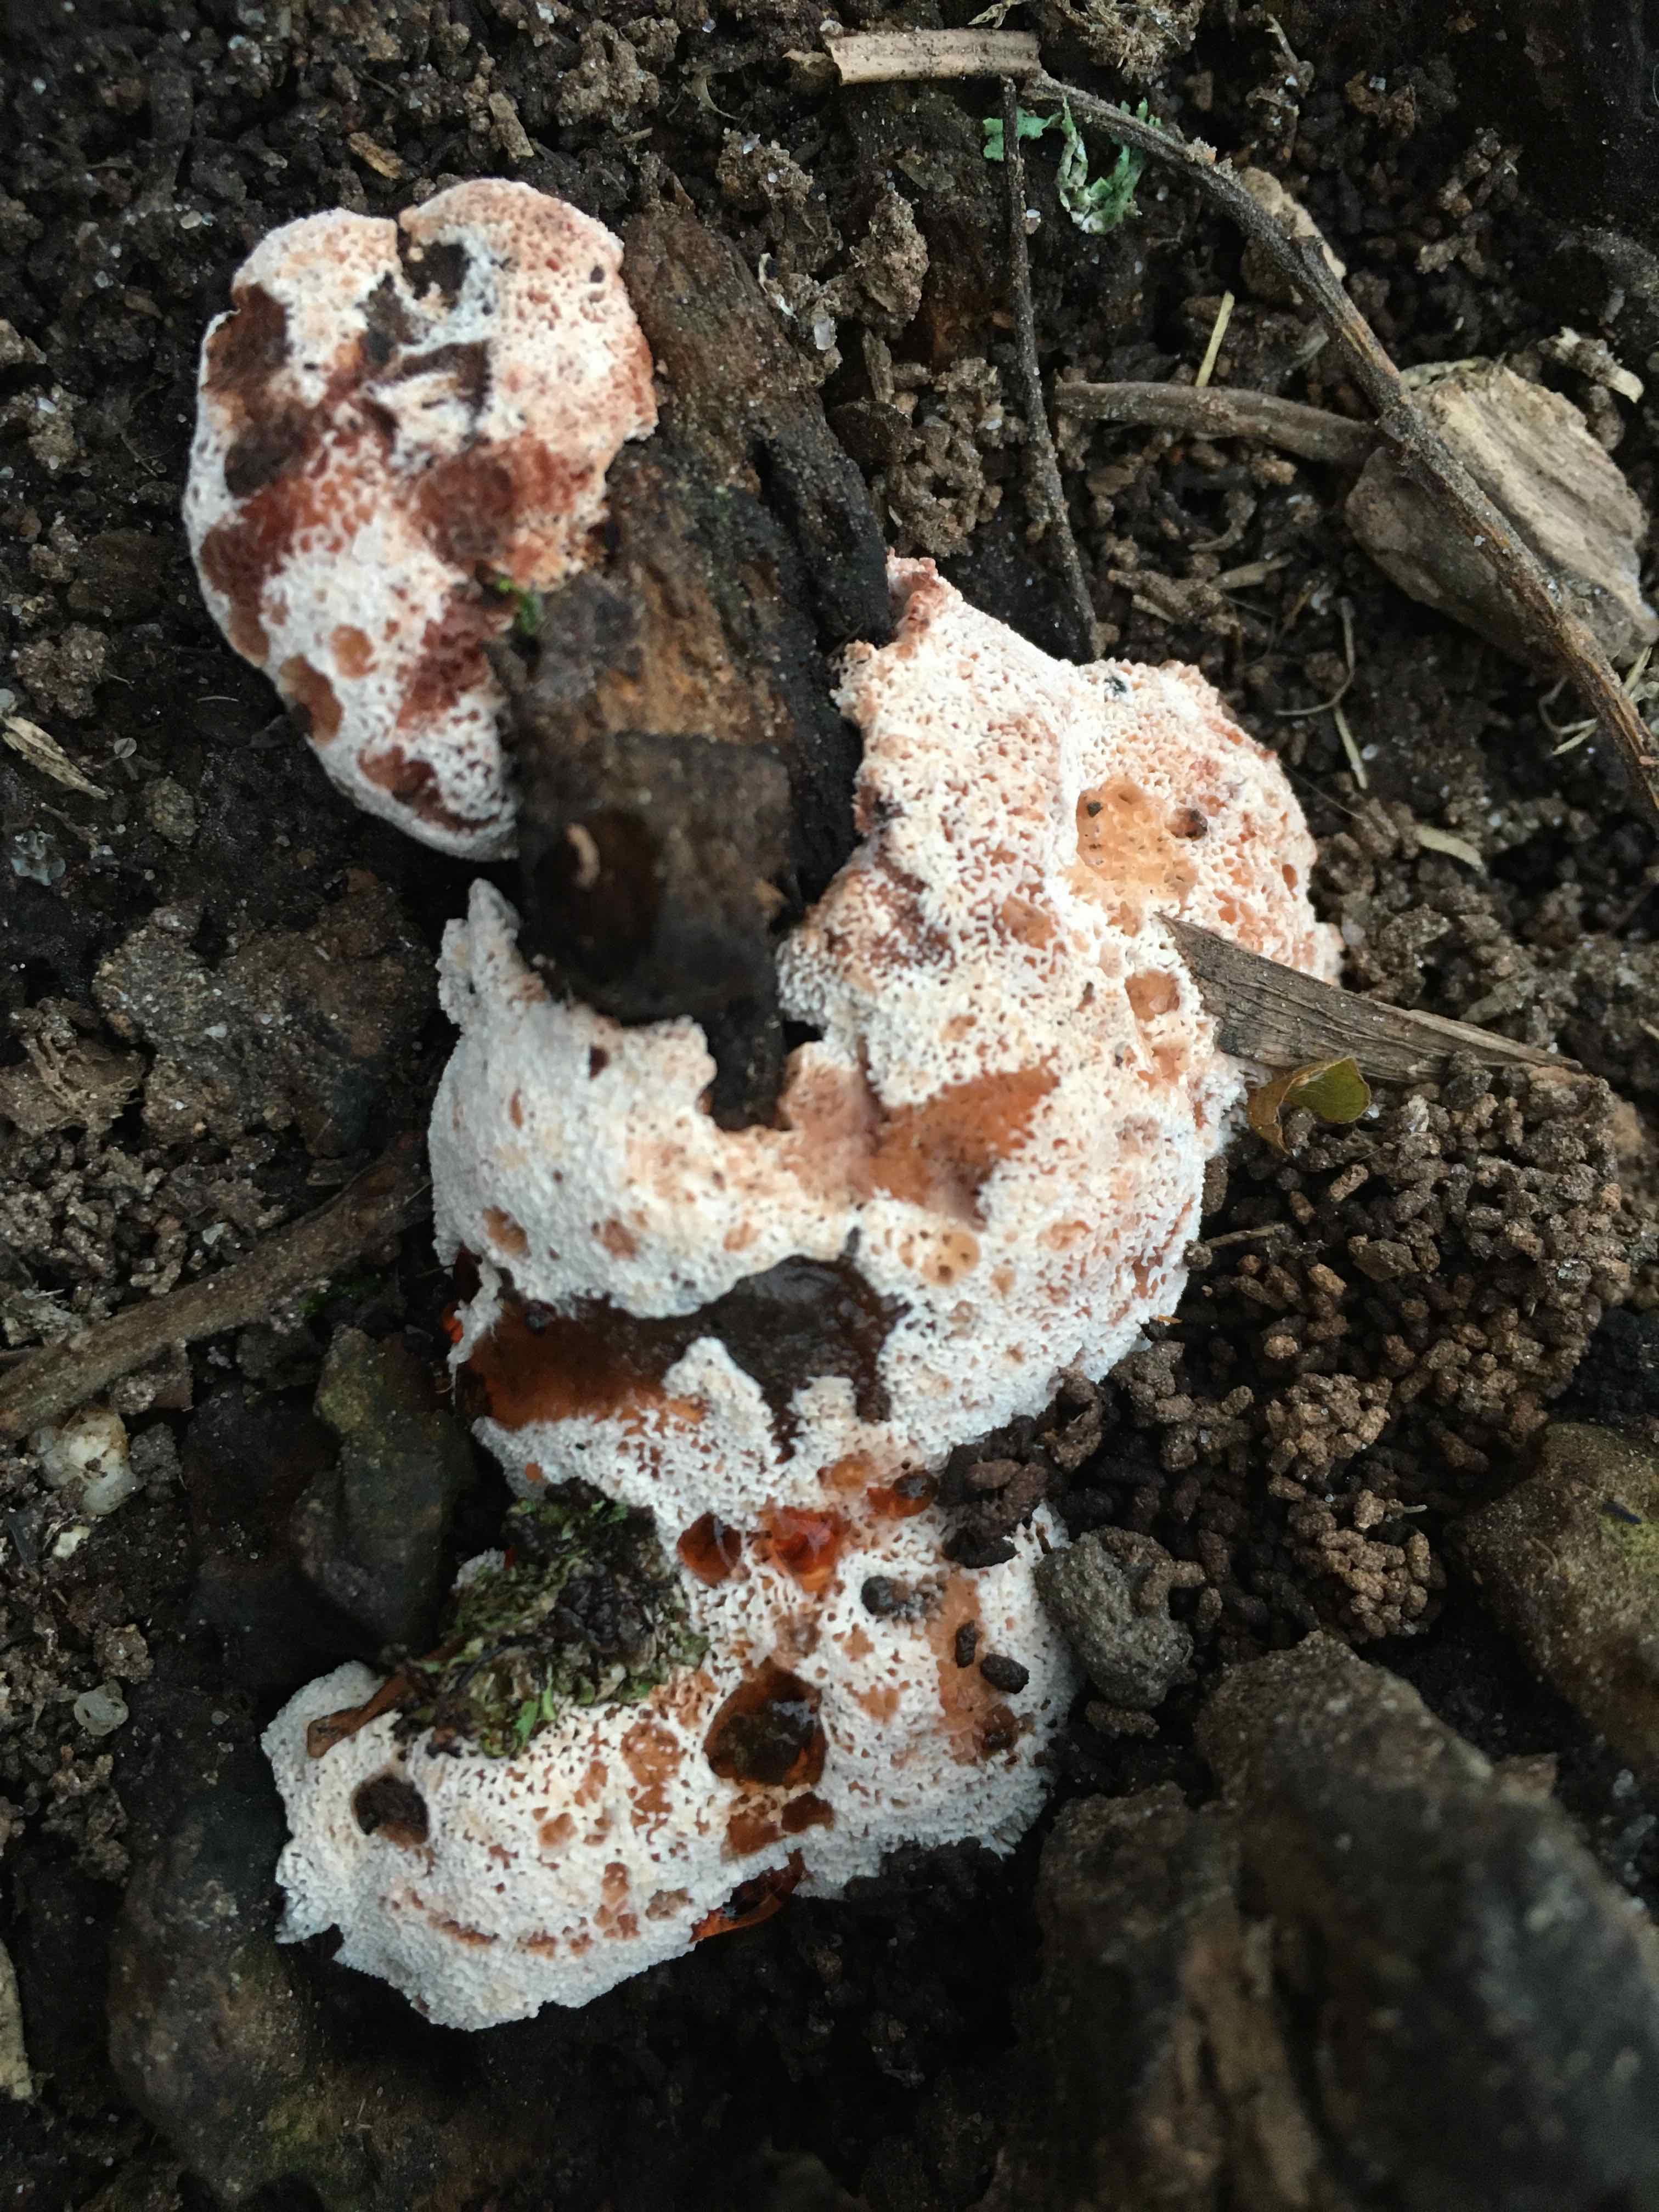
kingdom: Fungi
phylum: Basidiomycota
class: Agaricomycetes
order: Polyporales
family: Podoscyphaceae
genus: Abortiporus
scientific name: Abortiporus biennis
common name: rødmende pjalteporesvamp
